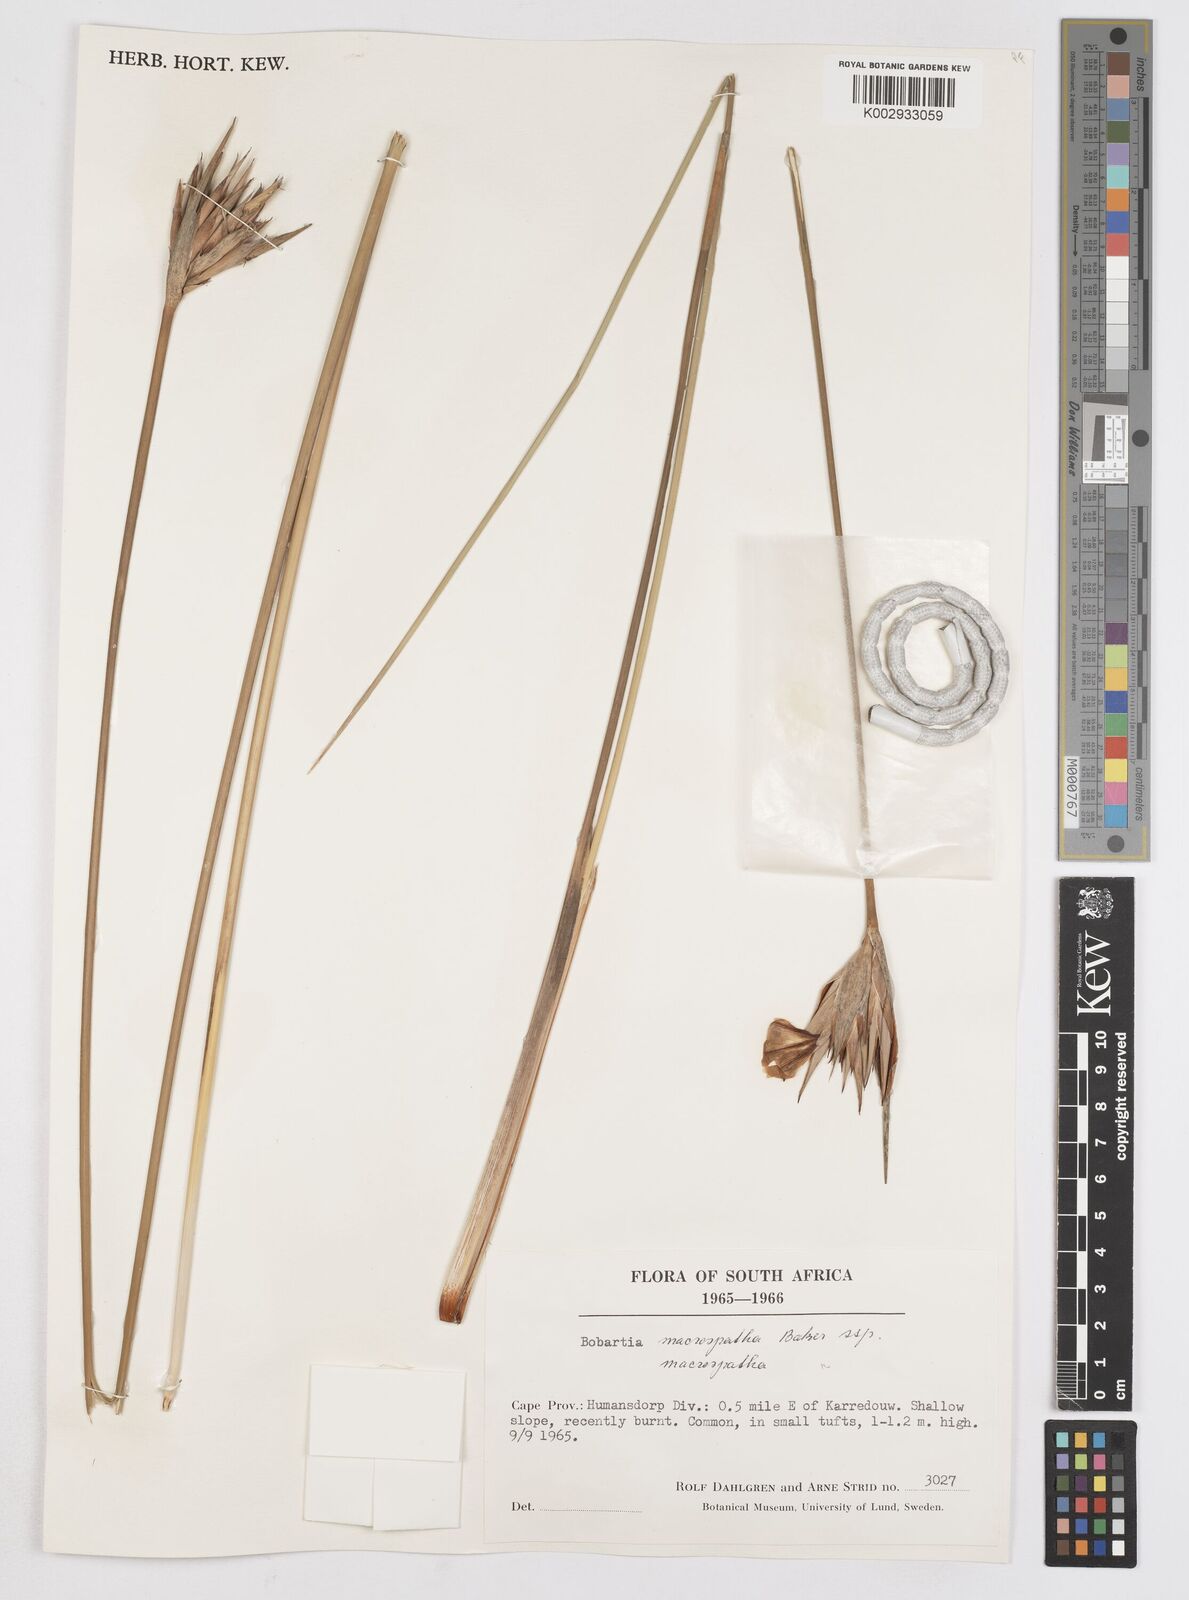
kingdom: Plantae
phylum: Tracheophyta
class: Liliopsida
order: Asparagales
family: Iridaceae
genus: Bobartia
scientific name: Bobartia macrospatha
